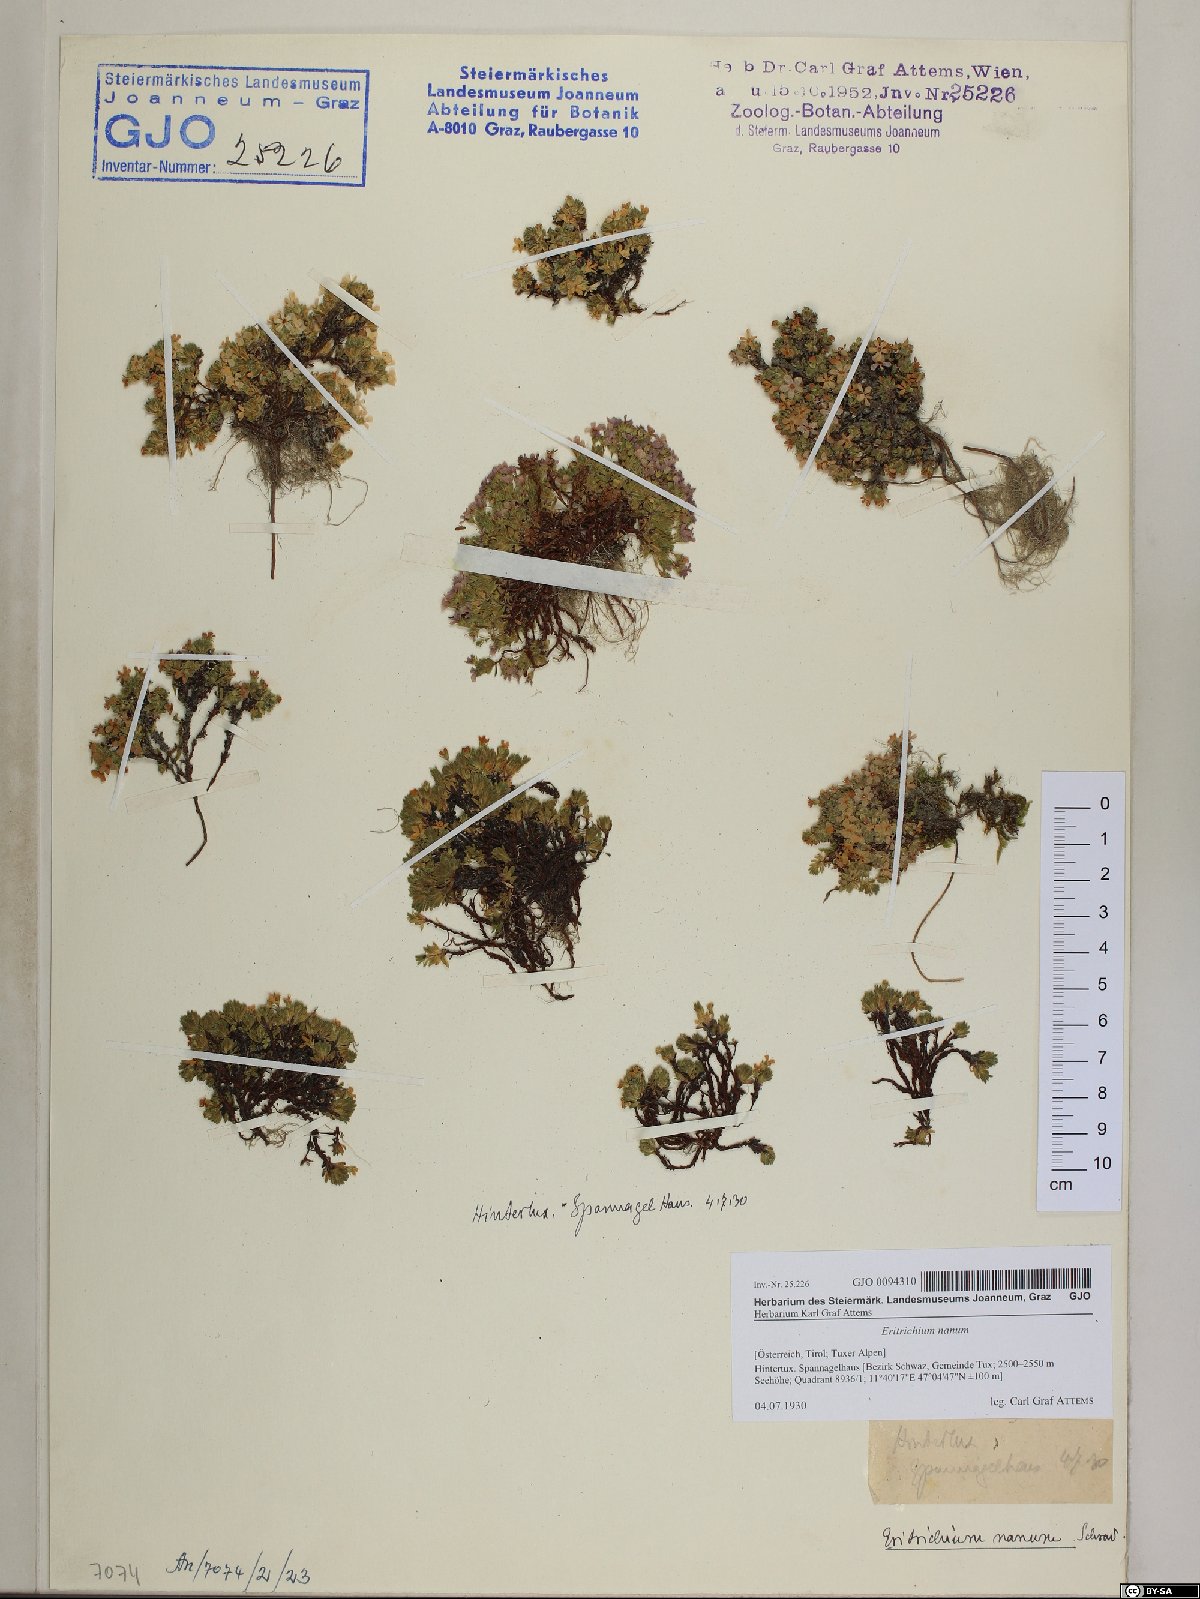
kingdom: Plantae
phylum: Tracheophyta
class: Magnoliopsida
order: Boraginales
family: Boraginaceae
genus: Eritrichium
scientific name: Eritrichium nanum
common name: King-of-the-alps
